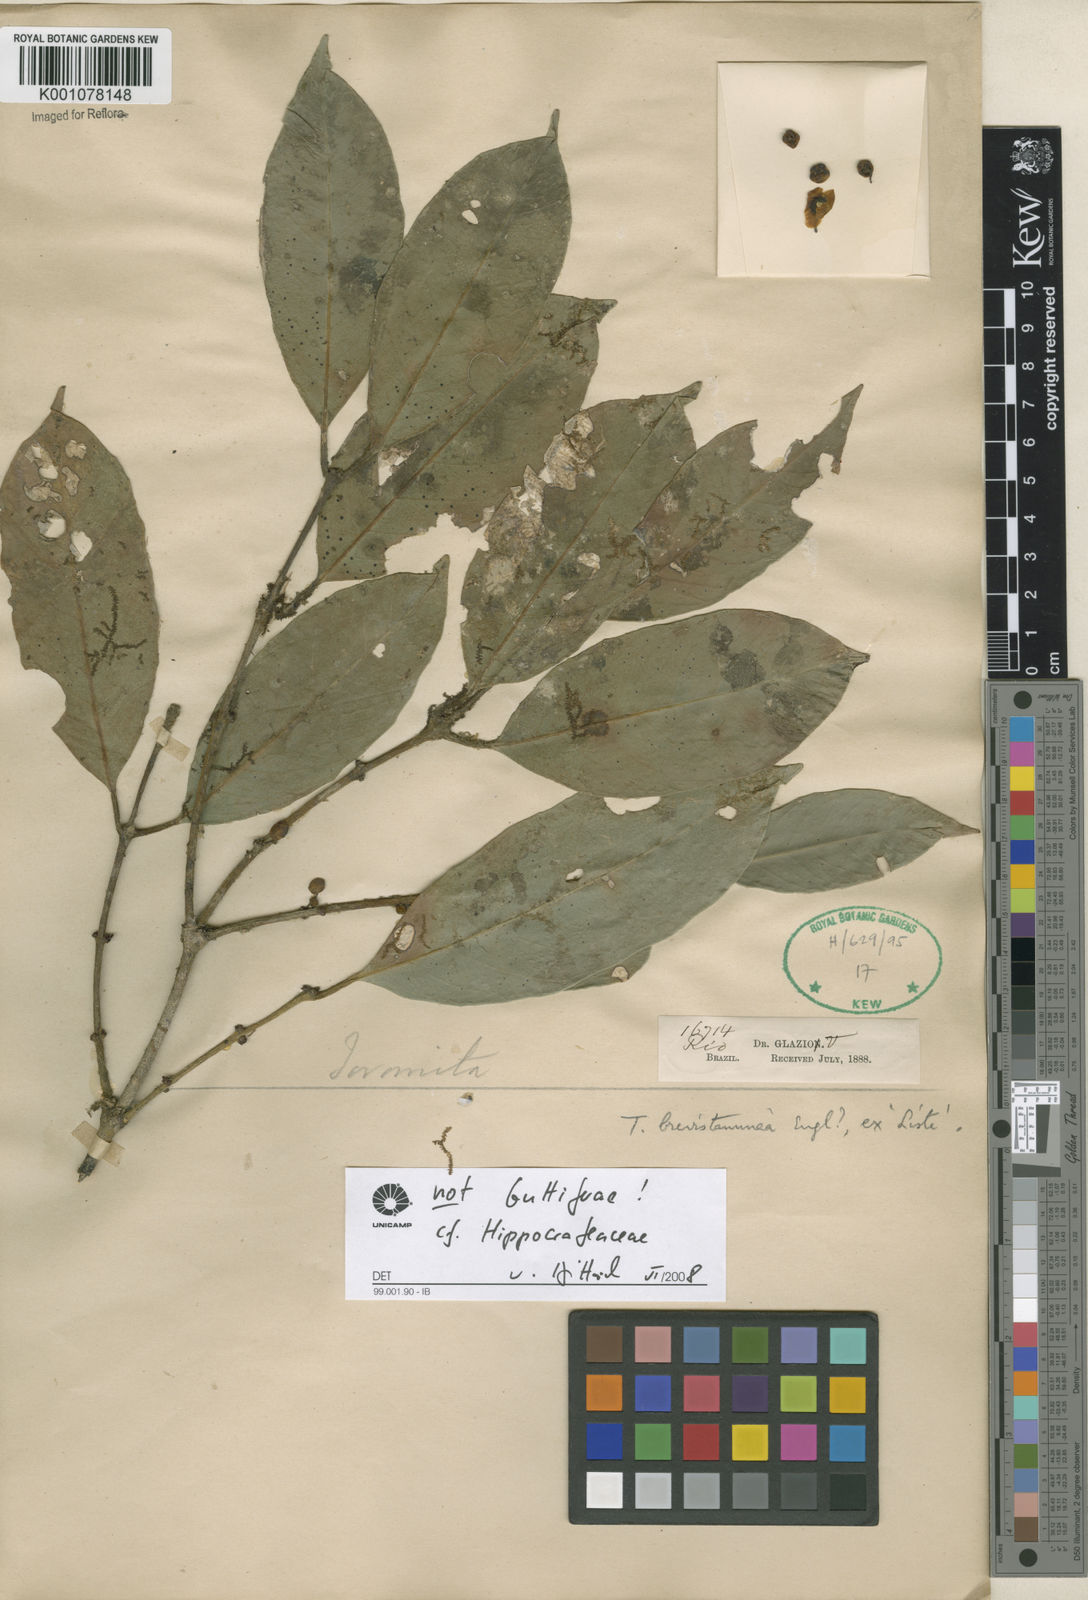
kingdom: Plantae
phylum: Tracheophyta
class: Magnoliopsida
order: Celastrales
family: Celastraceae
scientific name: Celastraceae
